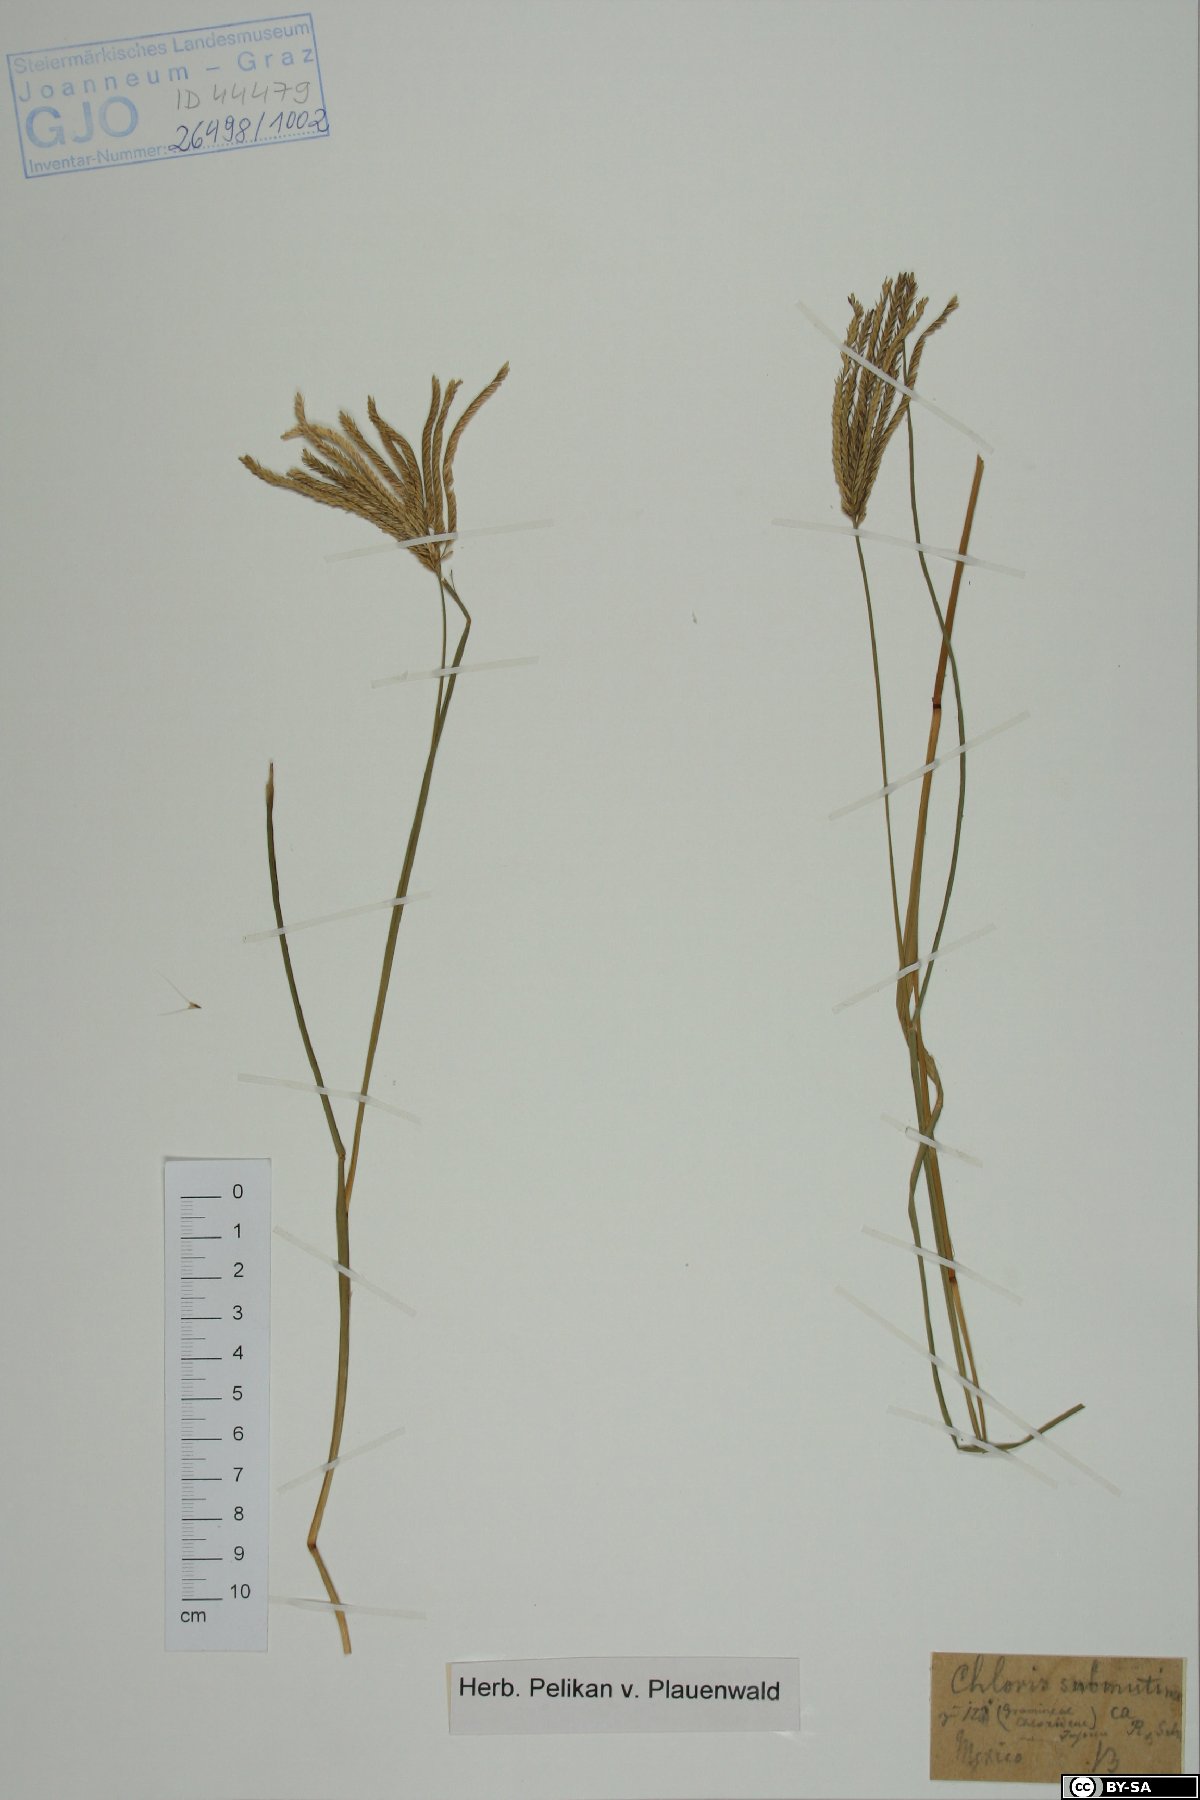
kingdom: Plantae
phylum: Tracheophyta
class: Liliopsida
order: Poales
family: Poaceae
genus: Chloris
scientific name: Chloris submutica
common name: Mexican windmill grass
